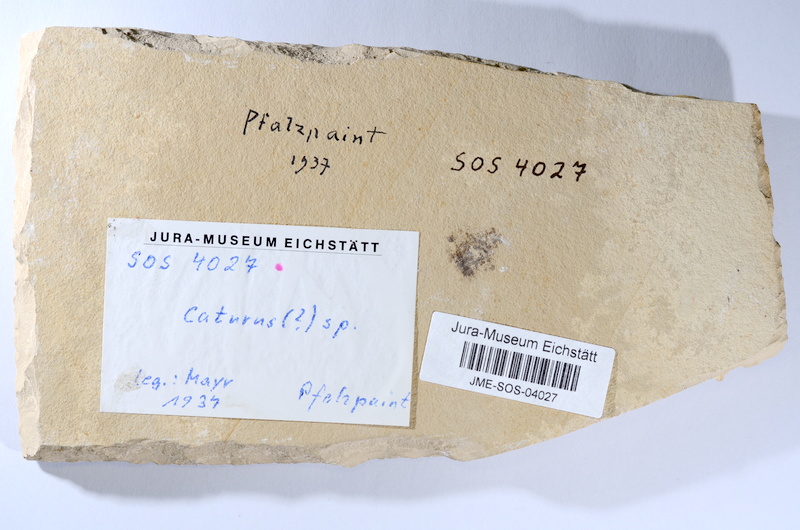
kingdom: Animalia
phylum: Chordata
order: Amiiformes
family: Caturidae
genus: Caturus
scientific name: Caturus
